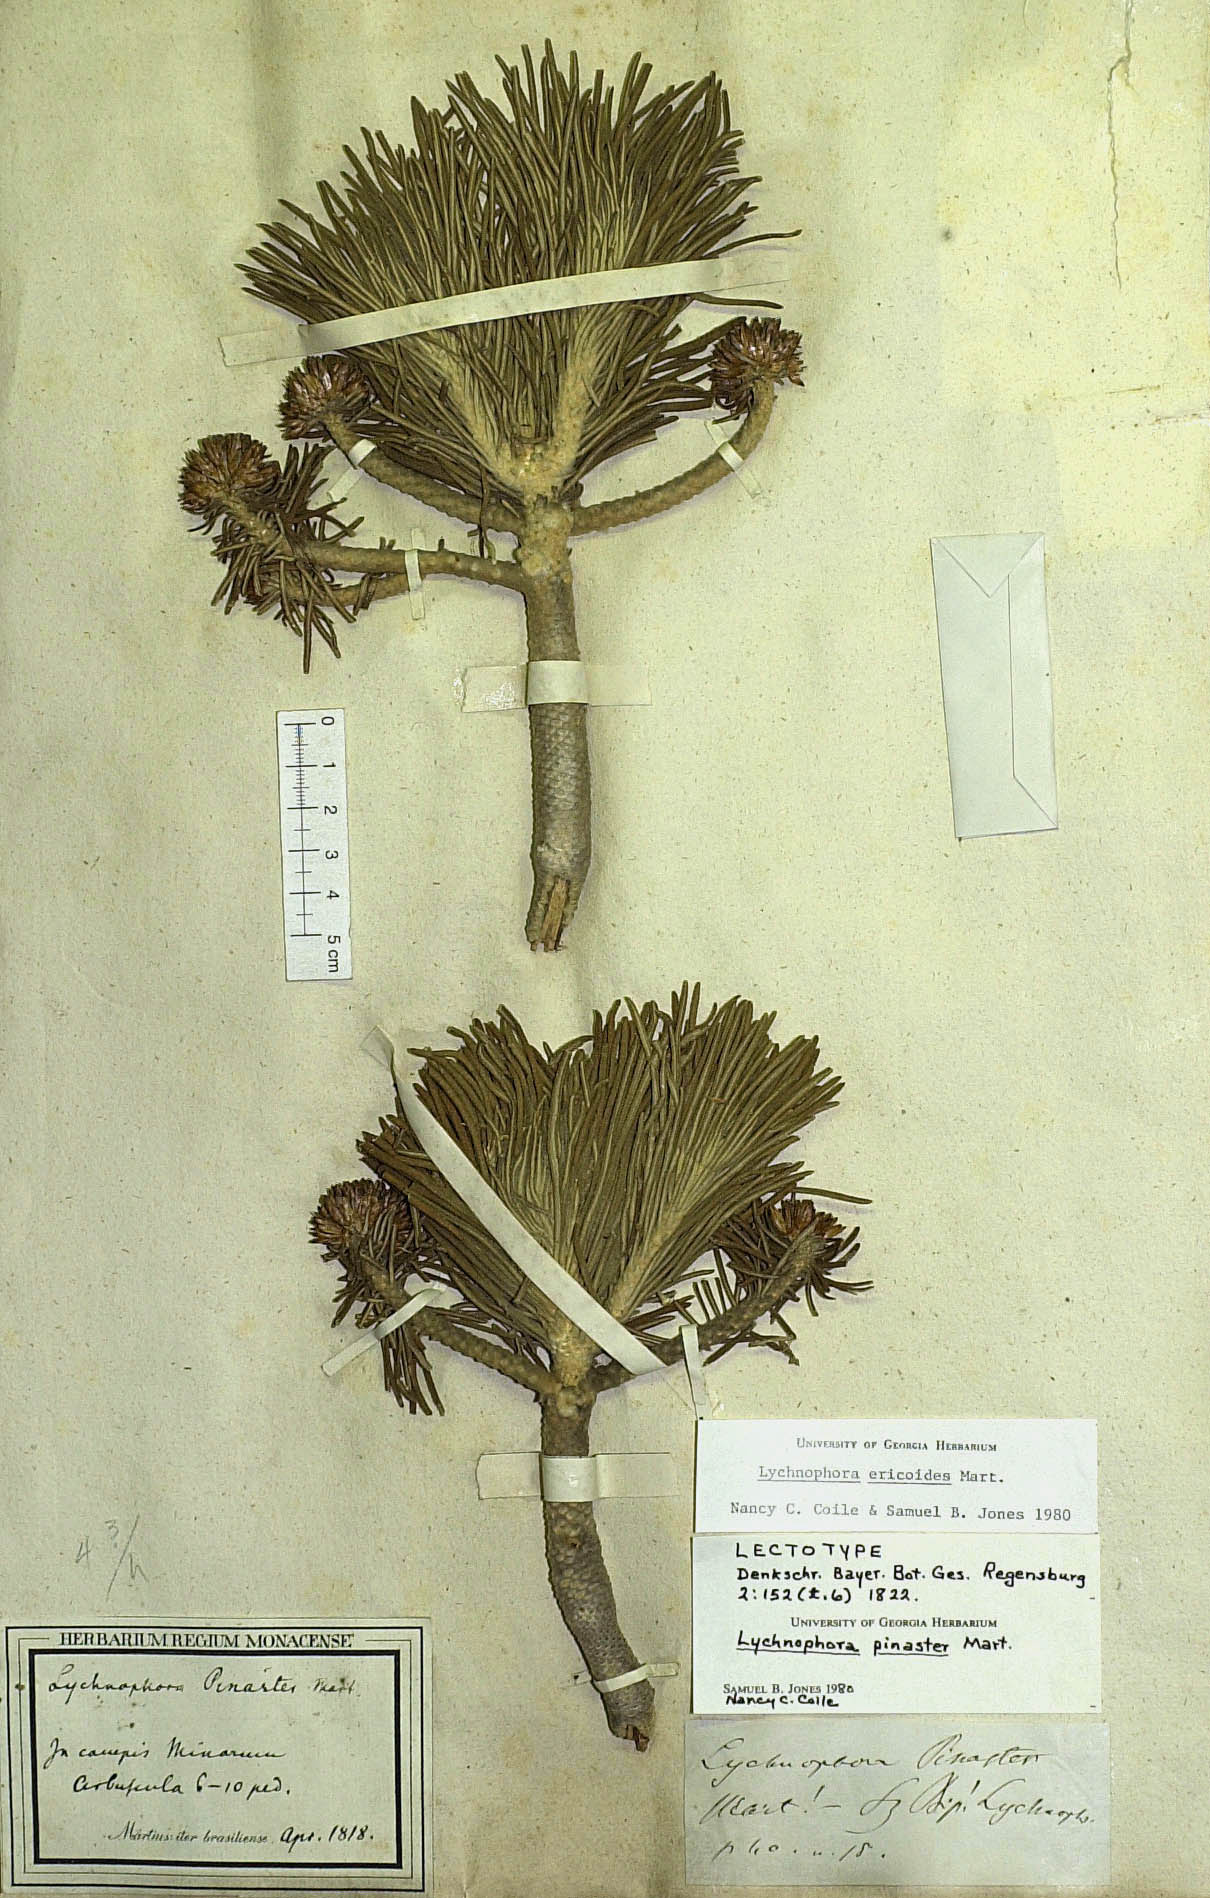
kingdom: Plantae
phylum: Tracheophyta
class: Magnoliopsida
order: Asterales
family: Asteraceae
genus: Lychnophora
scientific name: Lychnophora ericoides
